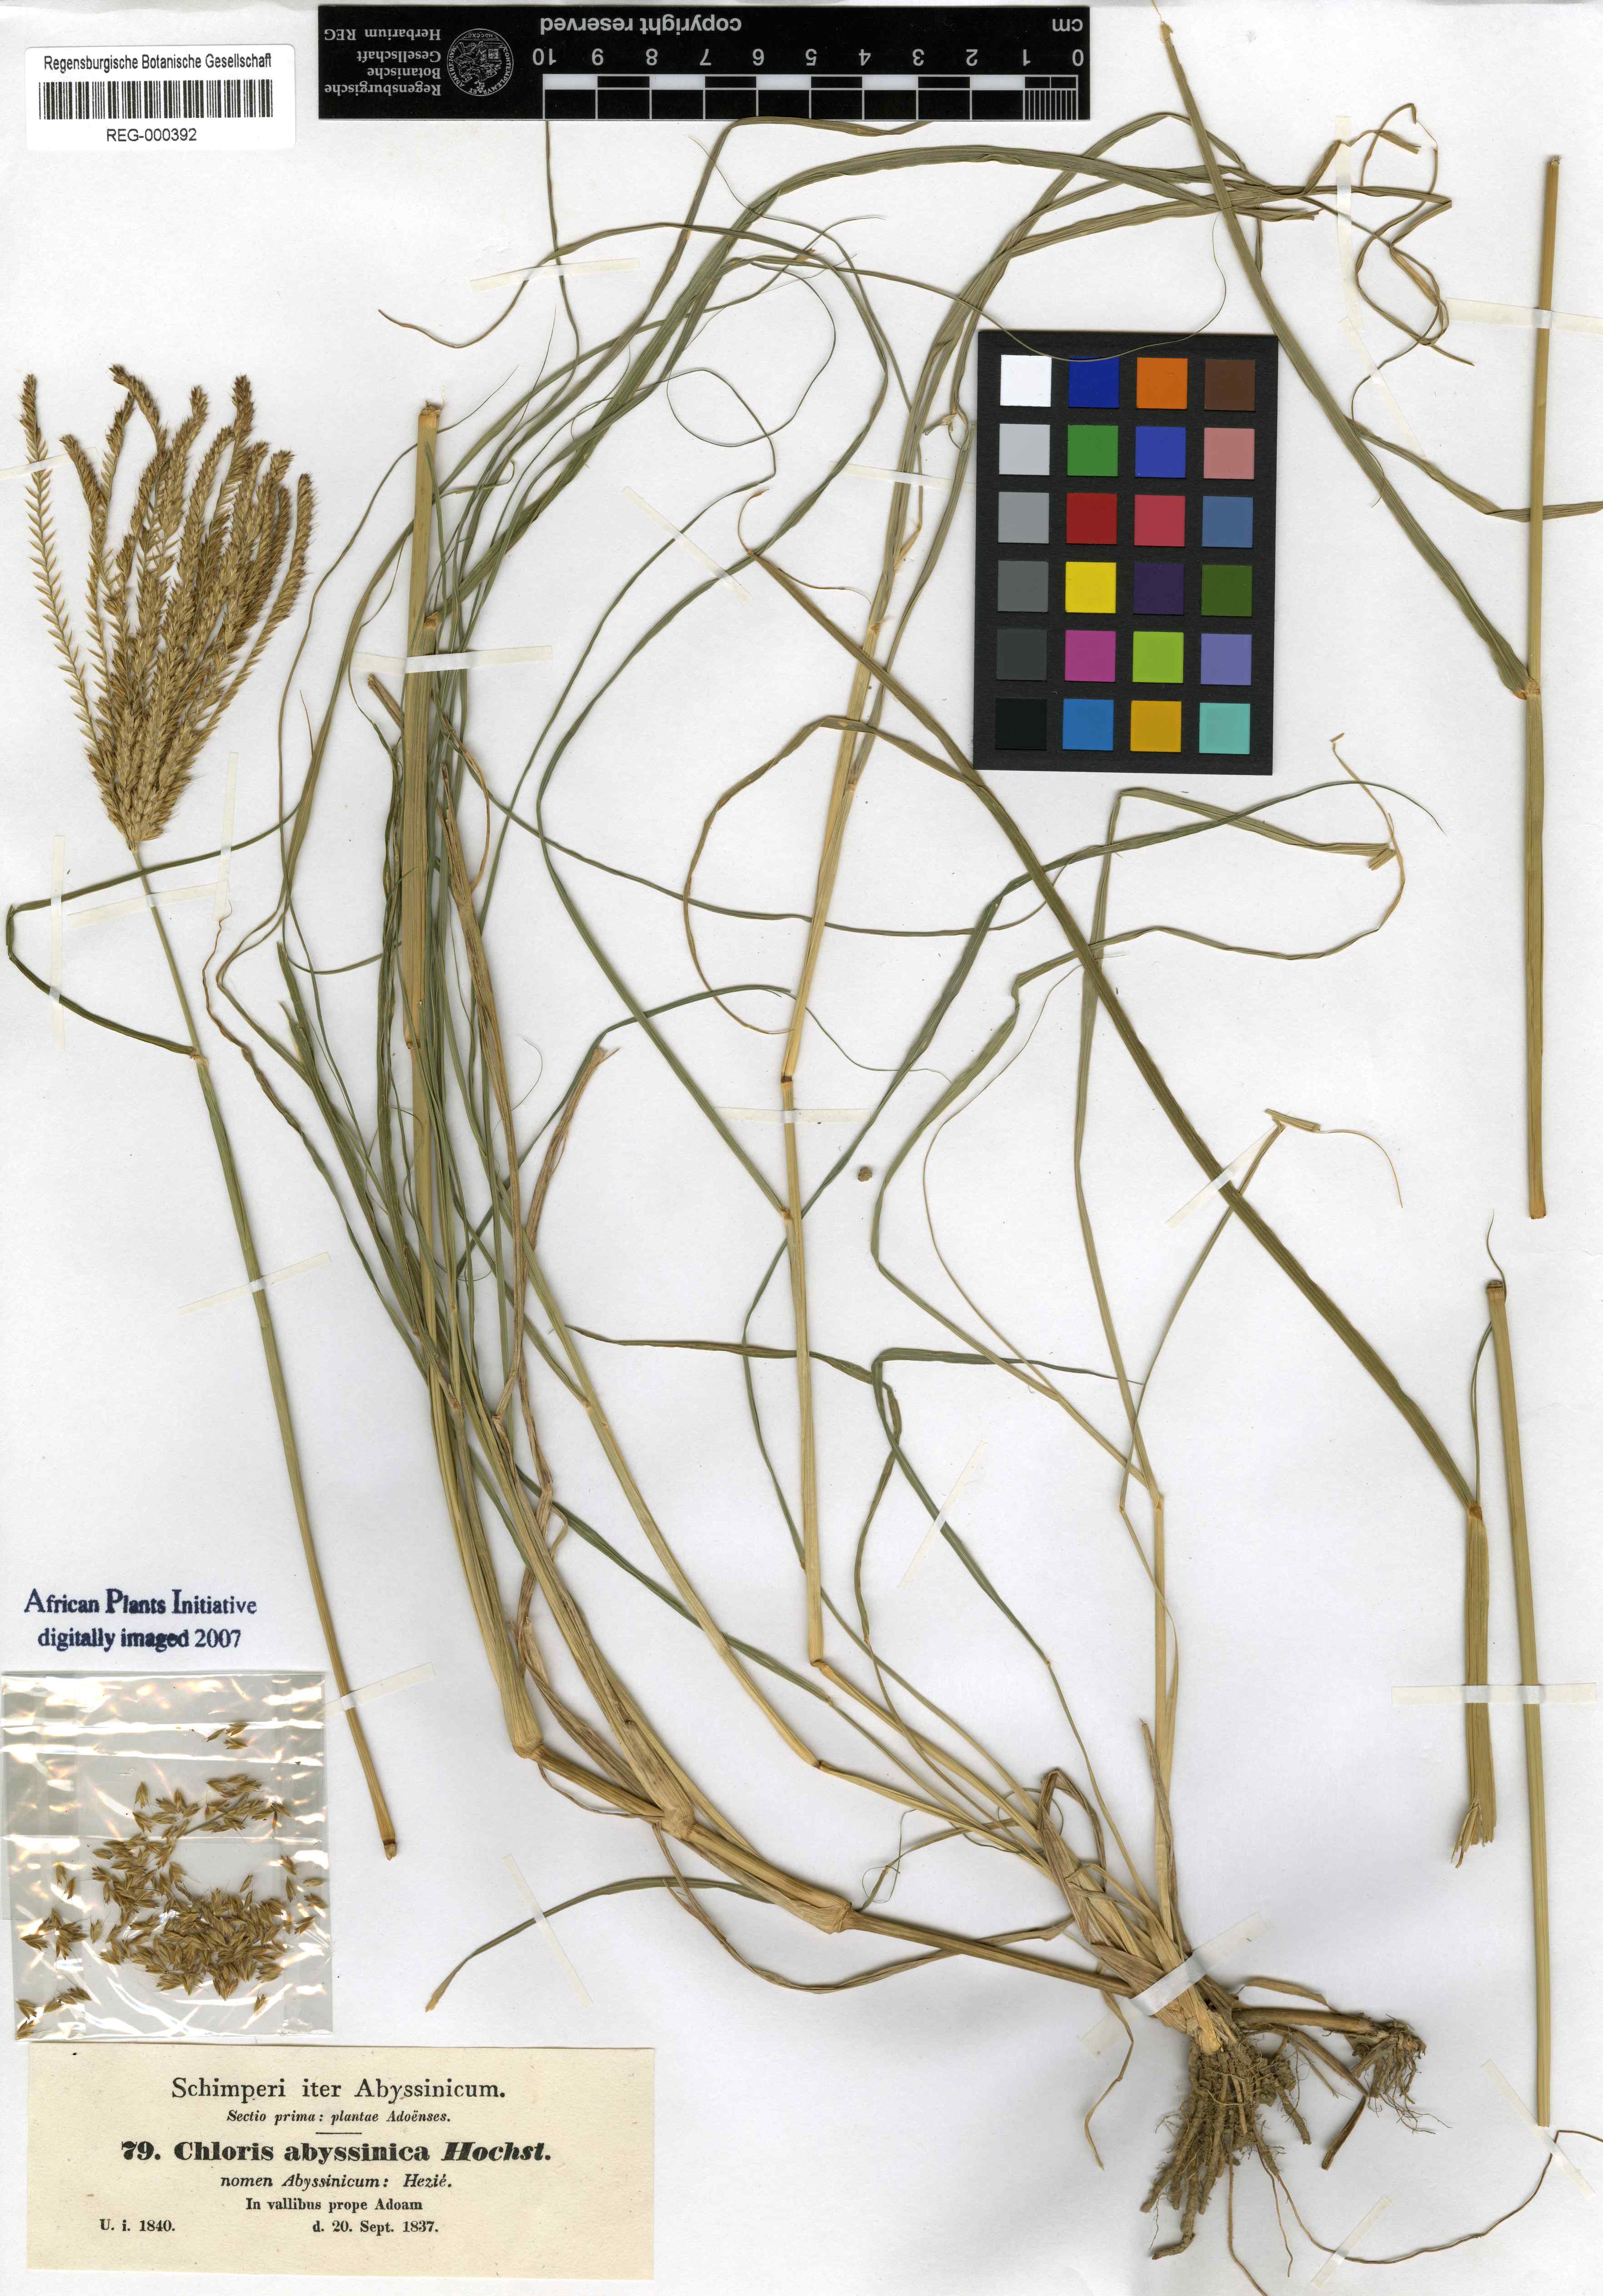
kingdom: Plantae
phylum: Tracheophyta
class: Liliopsida
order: Poales
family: Poaceae
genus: Chloris
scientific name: Chloris gayana
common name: Rhodes grass
